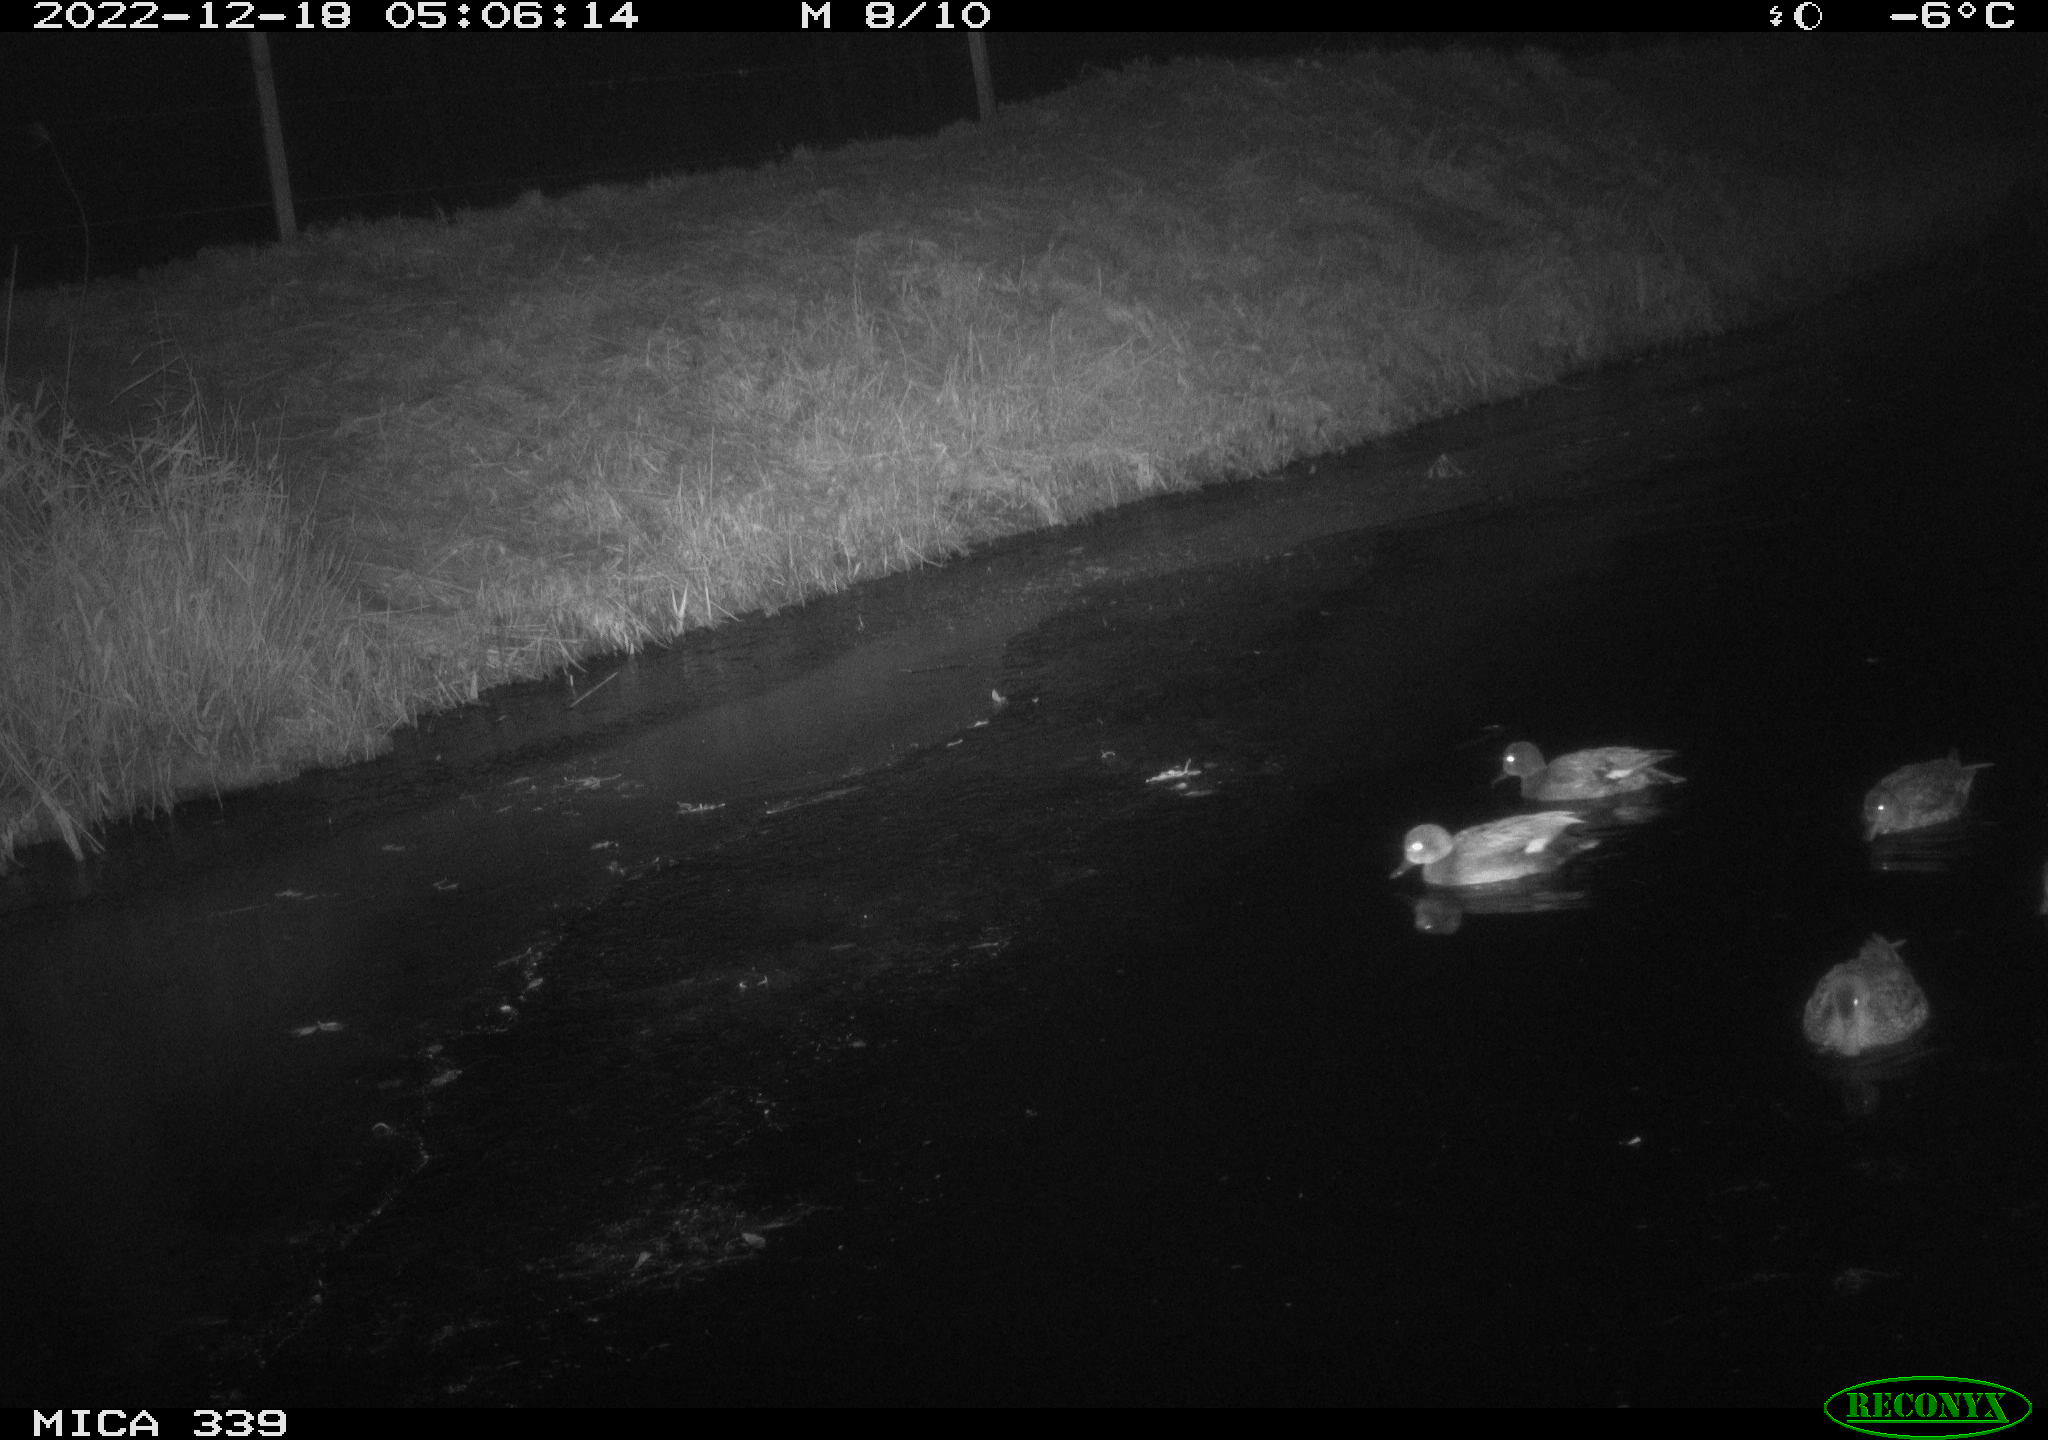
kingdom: Animalia
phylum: Chordata
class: Aves
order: Anseriformes
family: Anatidae
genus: Anas
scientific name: Anas
